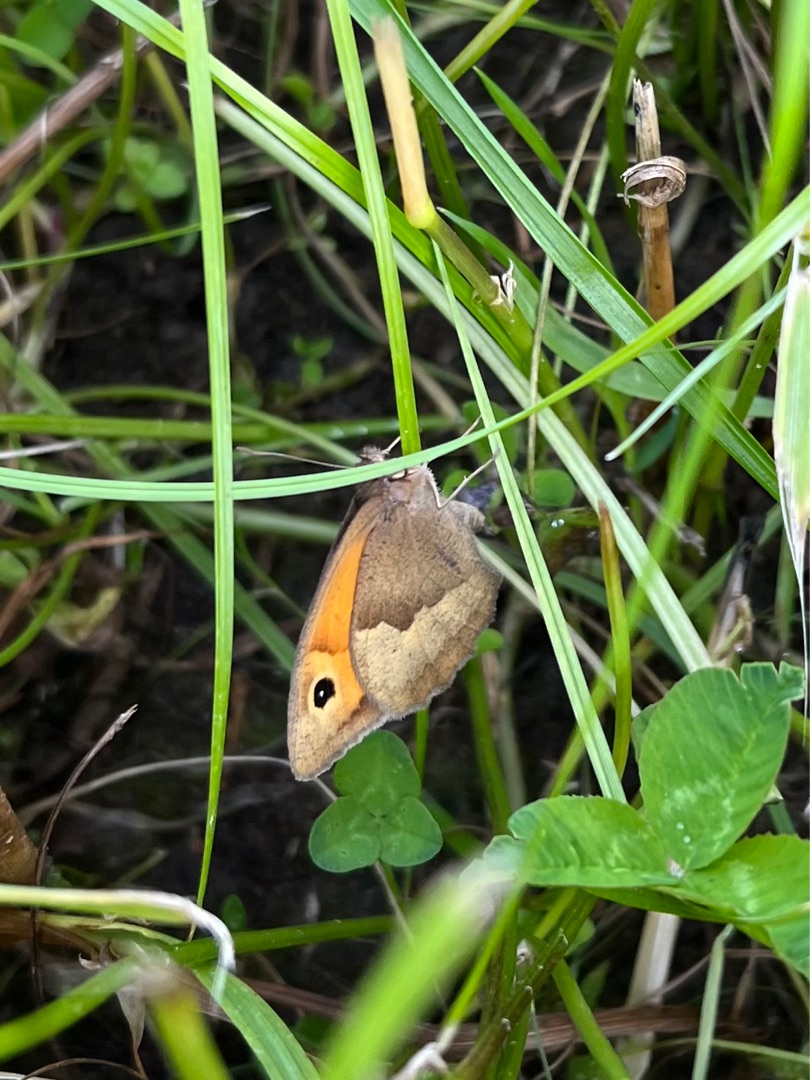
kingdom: Animalia
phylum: Arthropoda
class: Insecta
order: Lepidoptera
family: Nymphalidae
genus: Maniola
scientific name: Maniola jurtina
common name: Græsrandøje
